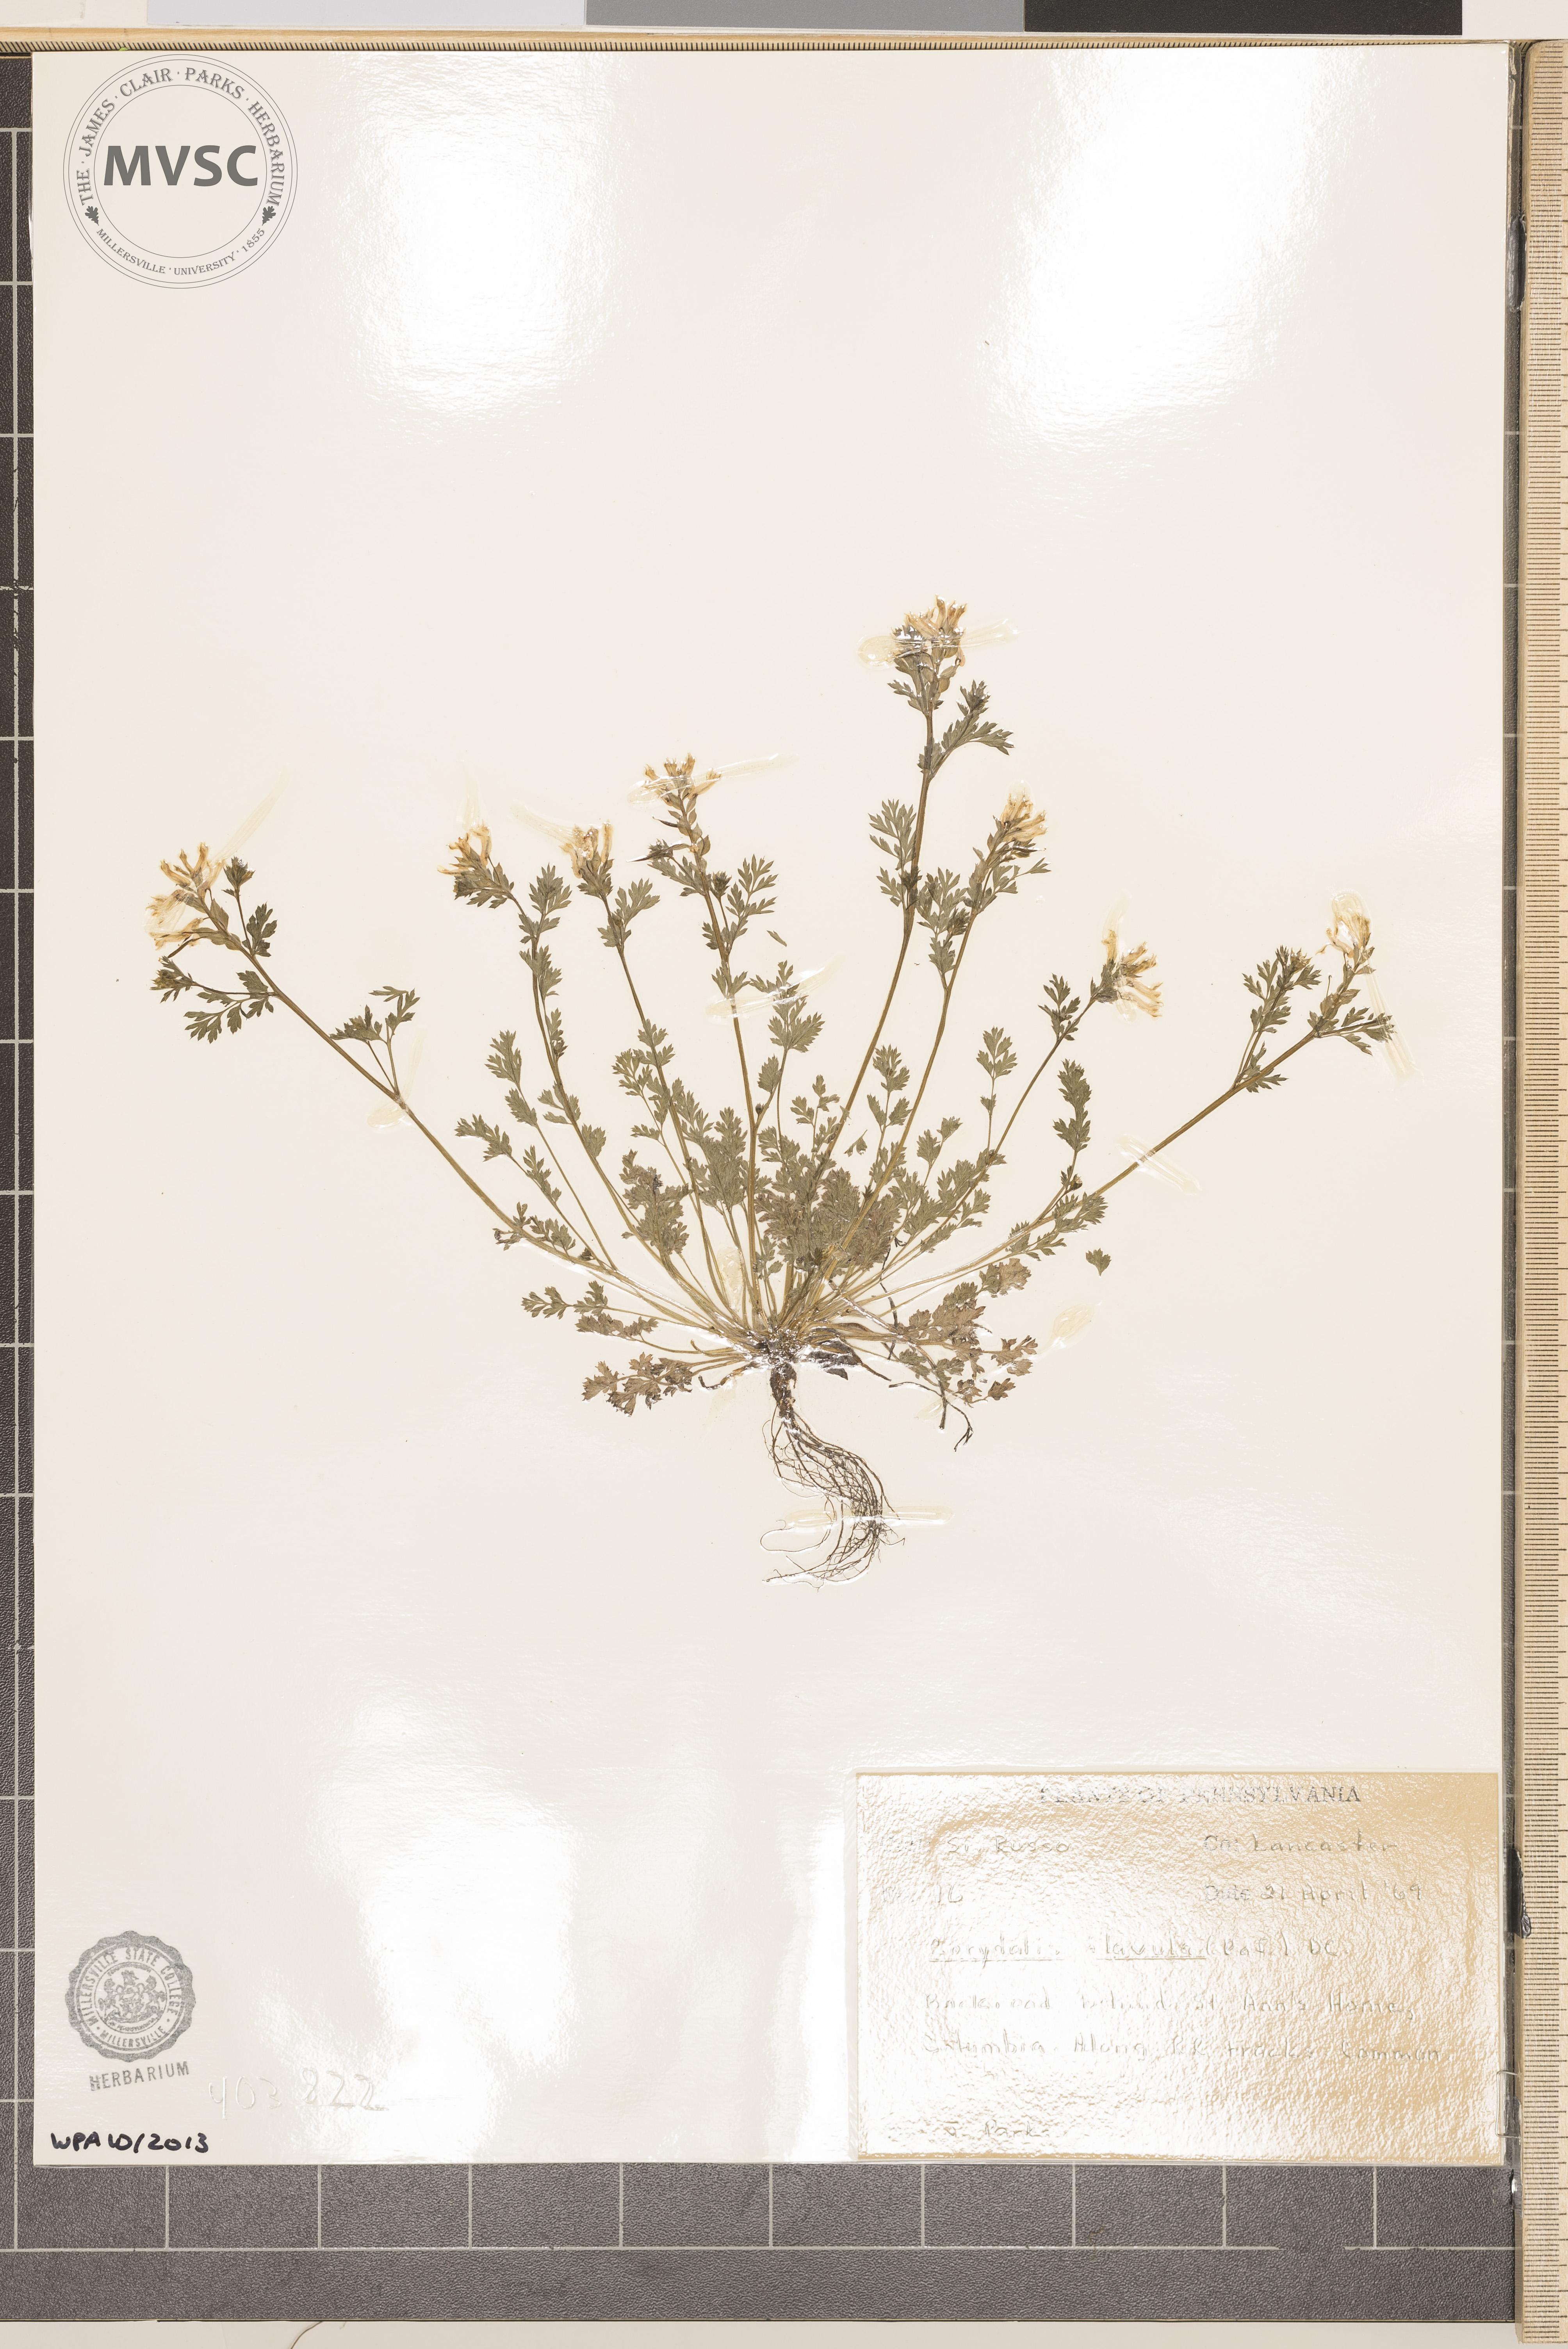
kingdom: Plantae
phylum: Tracheophyta
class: Magnoliopsida
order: Ranunculales
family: Papaveraceae
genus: Corydalis
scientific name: Corydalis flavula
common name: Yellow corydalis
